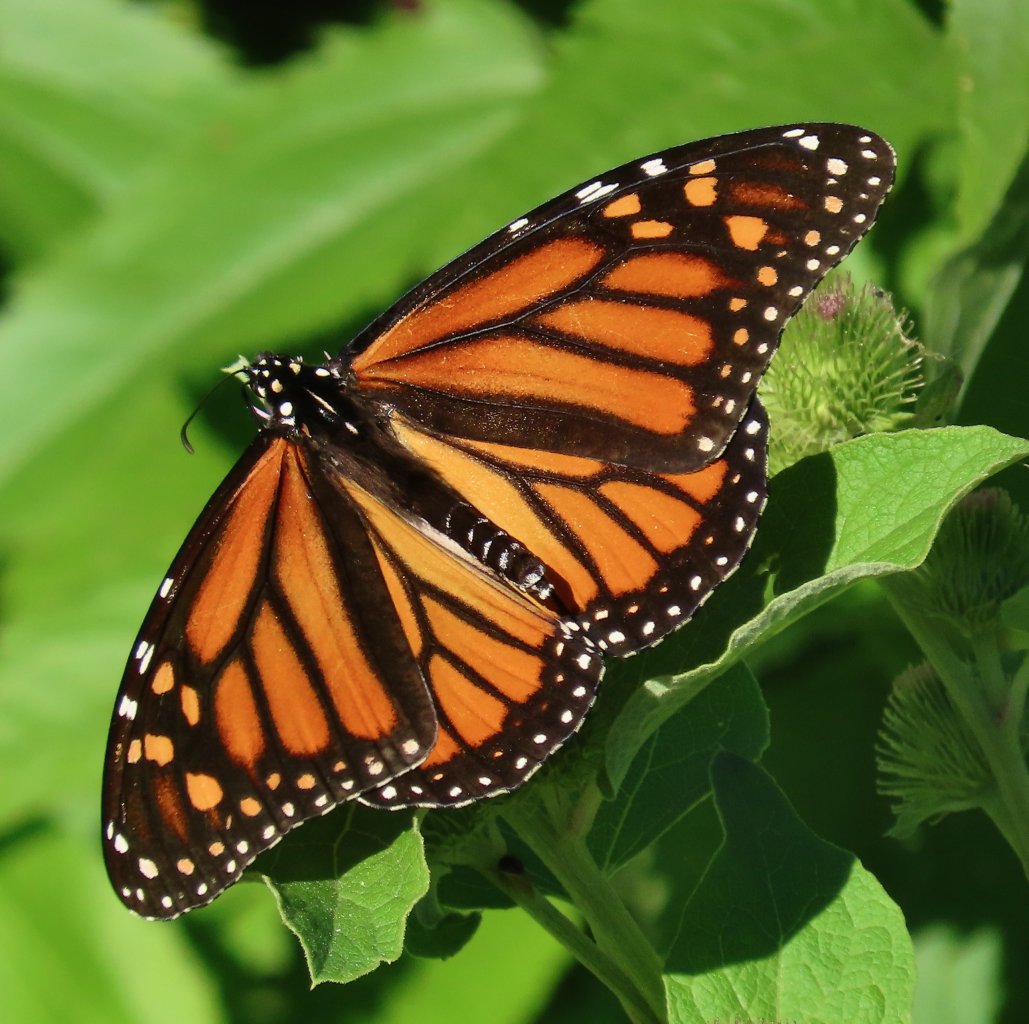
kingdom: Animalia
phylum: Arthropoda
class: Insecta
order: Lepidoptera
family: Nymphalidae
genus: Danaus
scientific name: Danaus plexippus
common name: Monarch
